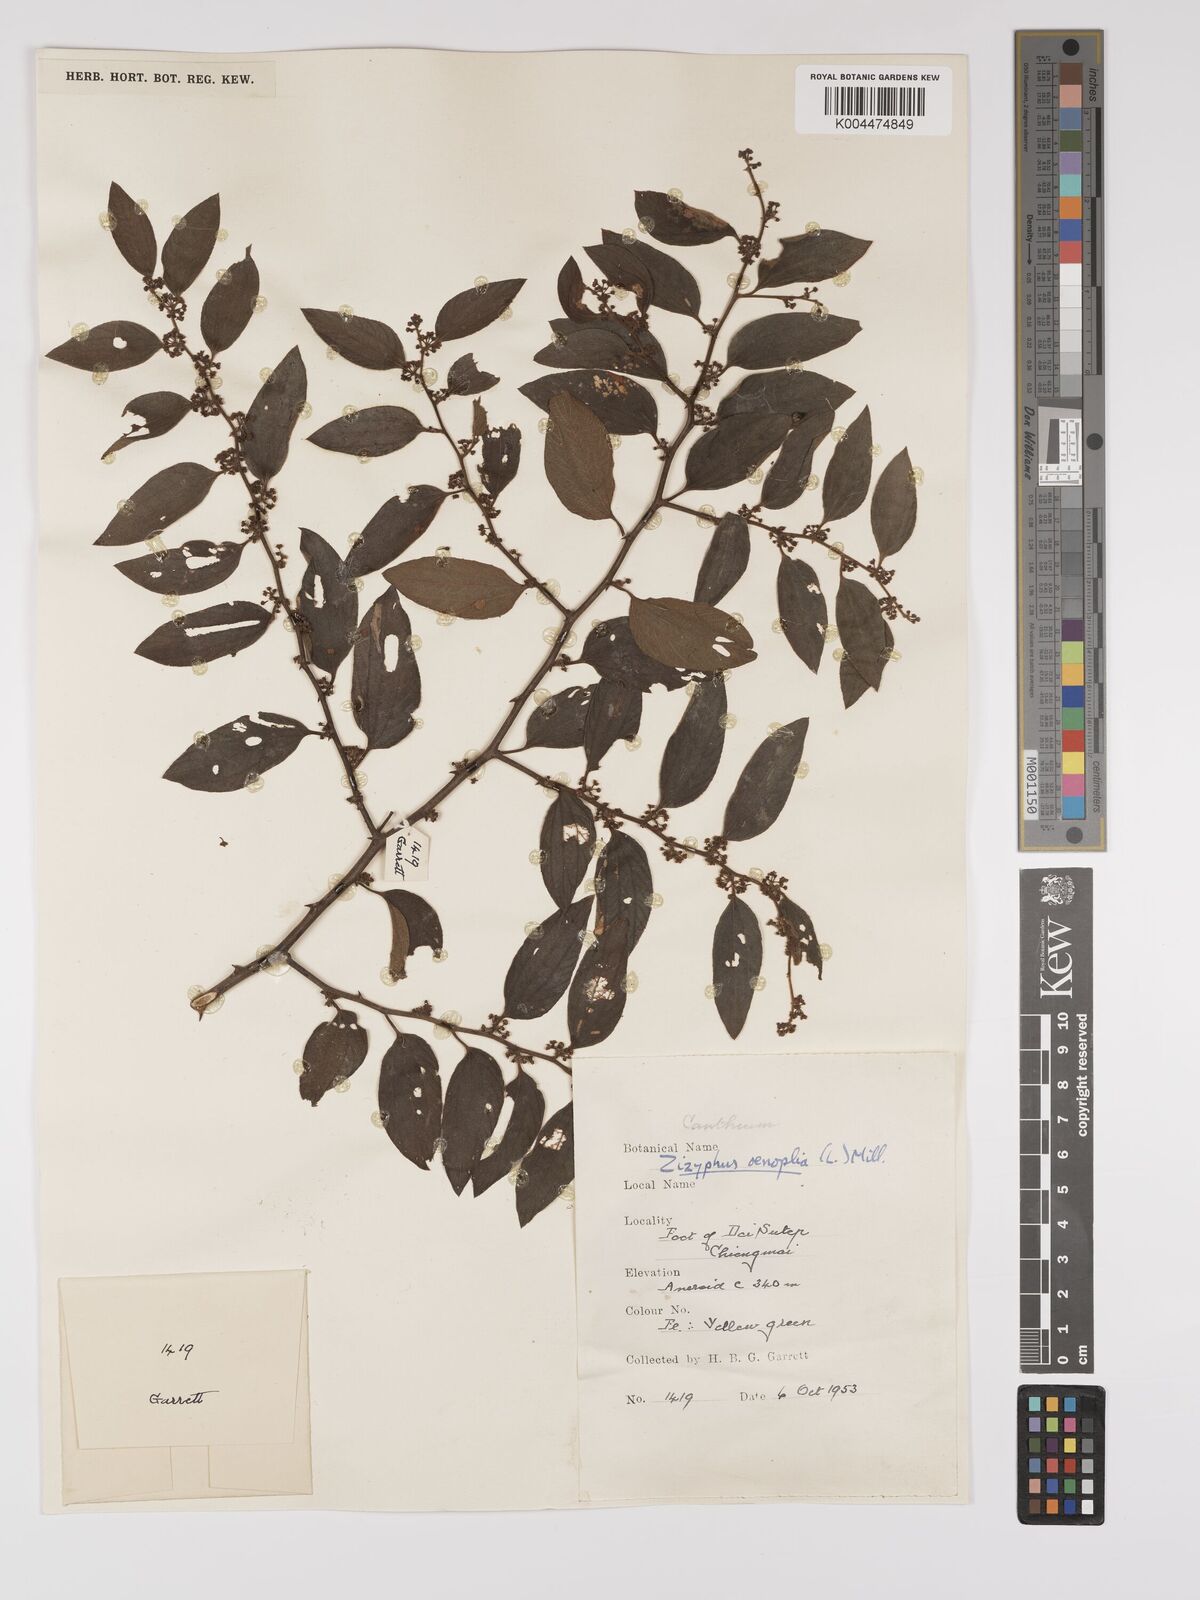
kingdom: Plantae
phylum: Tracheophyta
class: Magnoliopsida
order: Rosales
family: Rhamnaceae
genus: Ziziphus
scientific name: Ziziphus oenopolia
